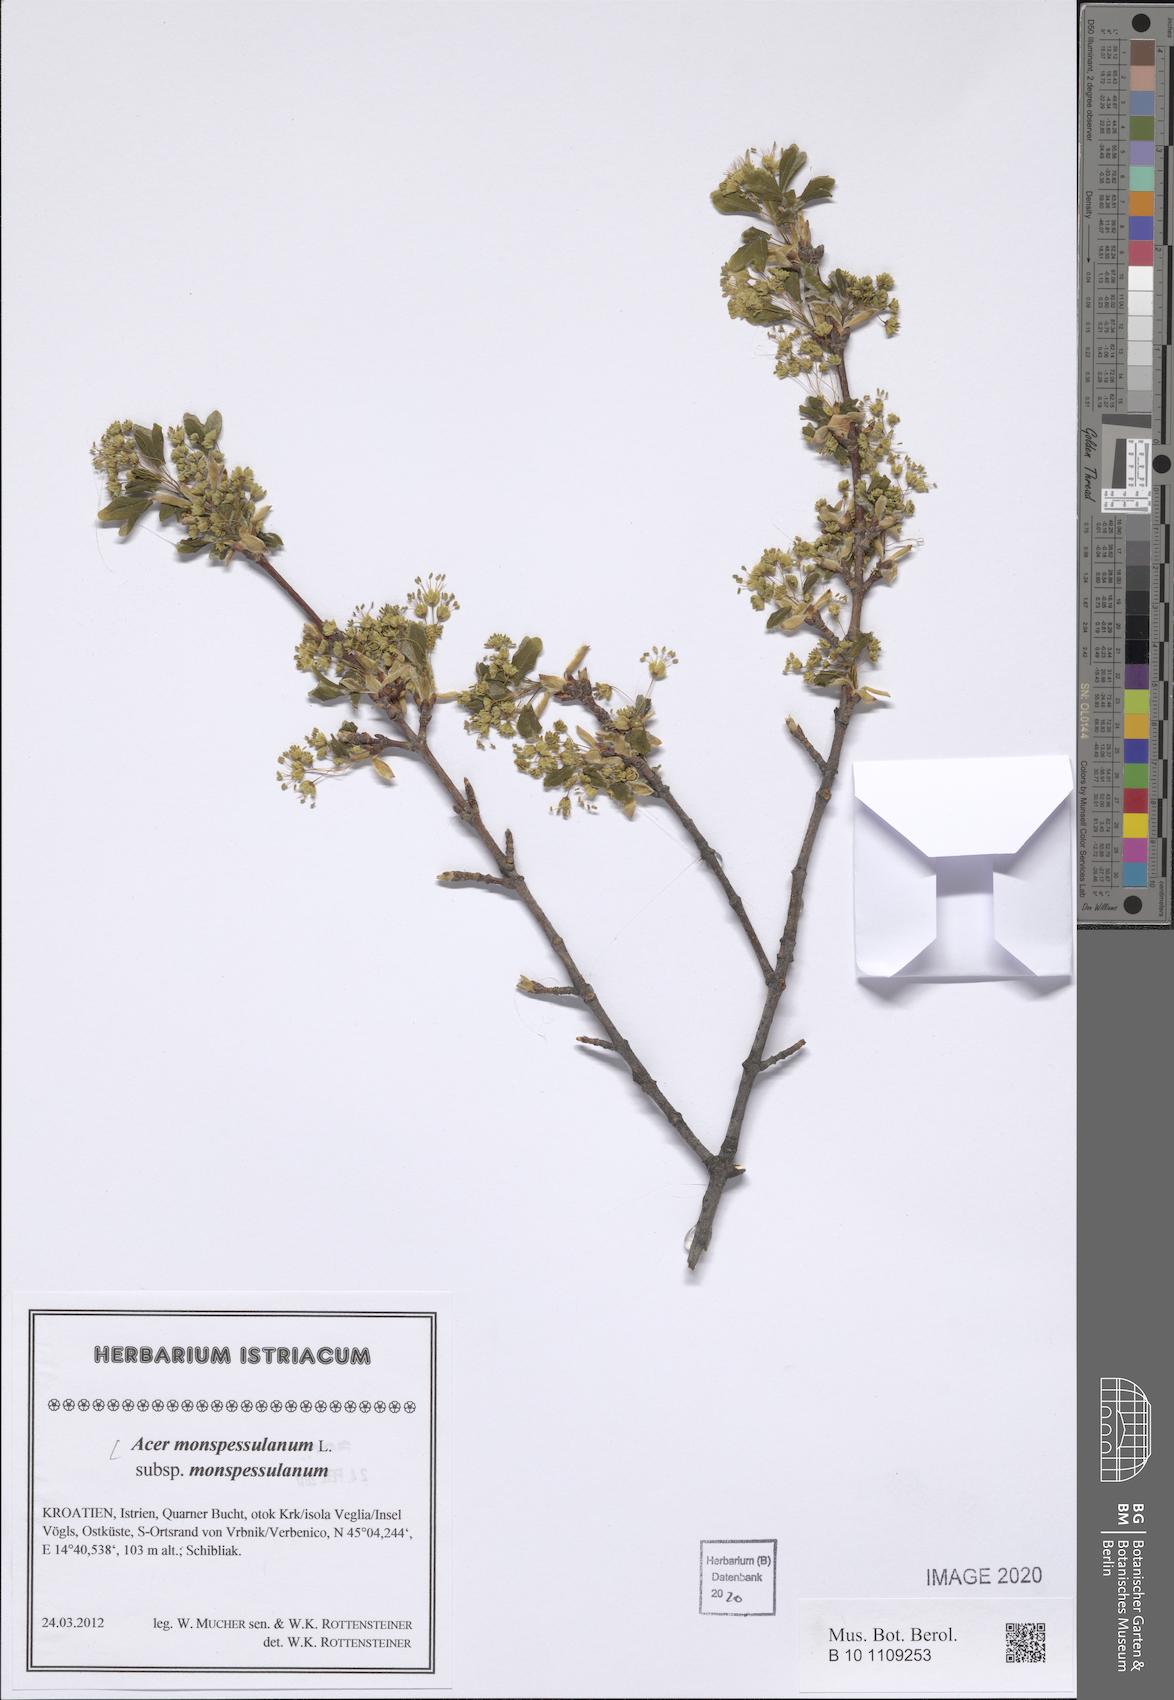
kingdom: Plantae
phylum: Tracheophyta
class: Magnoliopsida
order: Sapindales
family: Sapindaceae
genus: Acer
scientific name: Acer monspessulanum
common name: Montpellier maple
